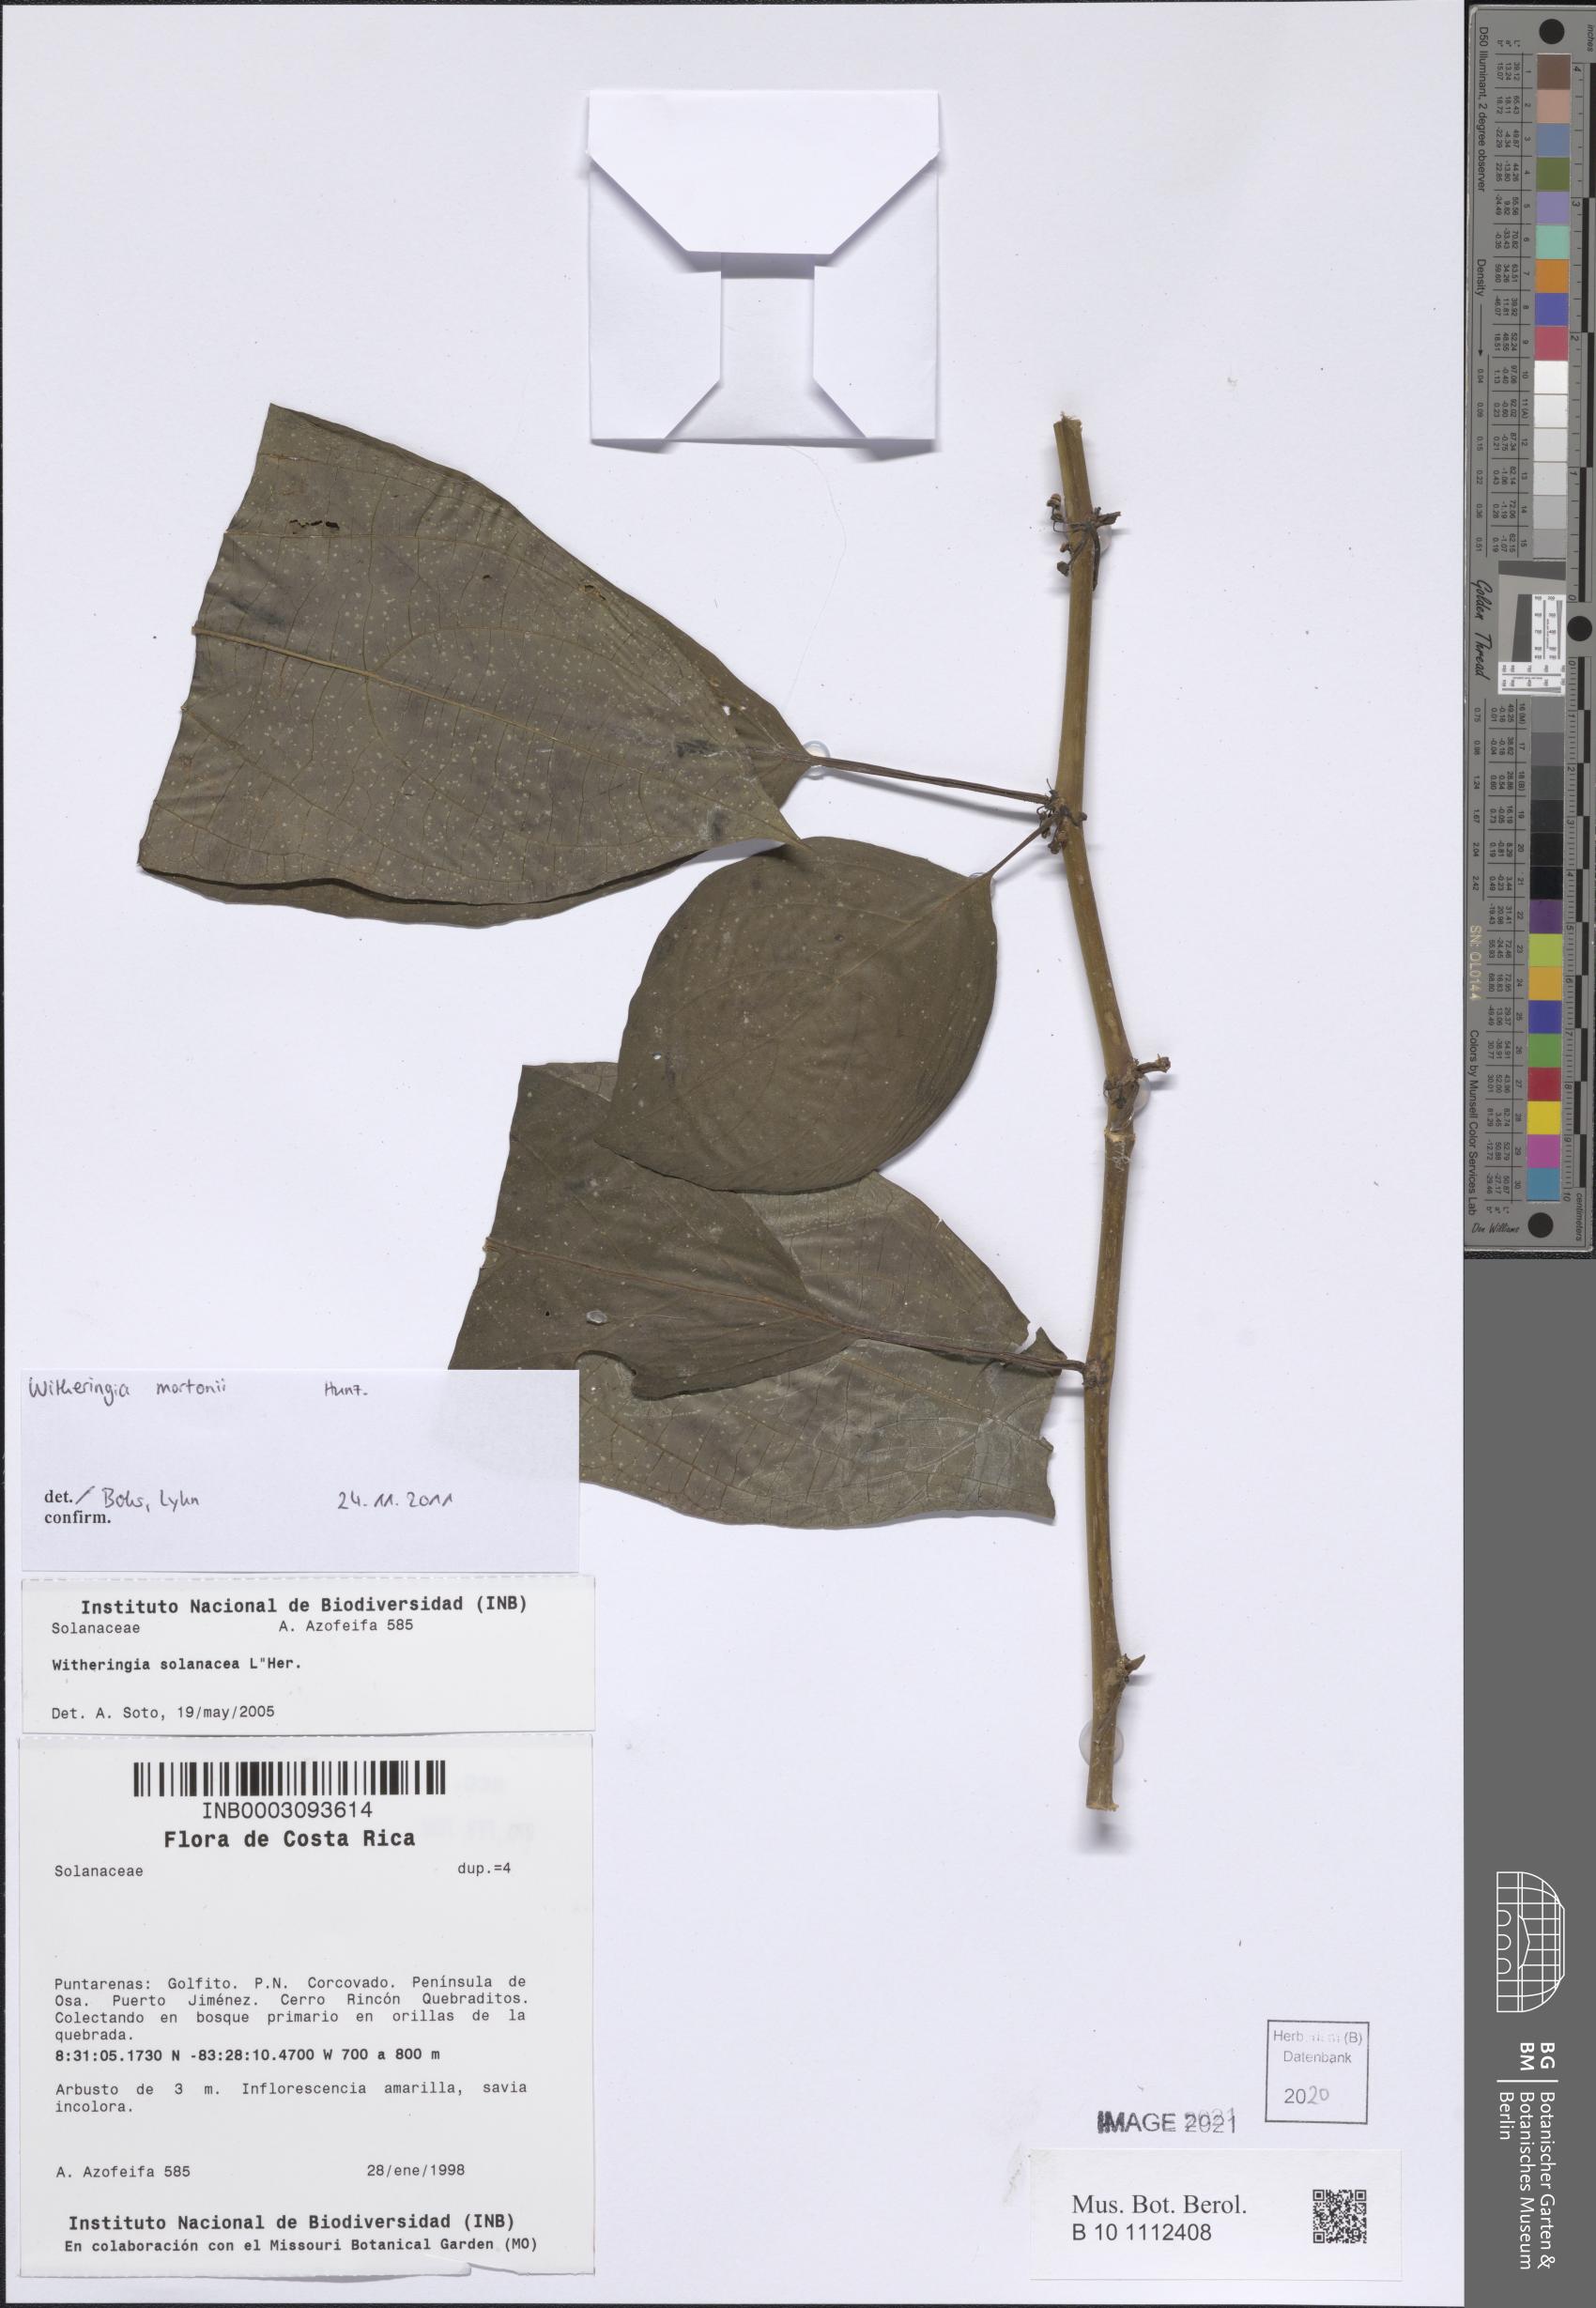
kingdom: Plantae
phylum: Tracheophyta
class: Magnoliopsida
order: Solanales
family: Solanaceae
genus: Witheringia
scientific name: Witheringia mortonii
